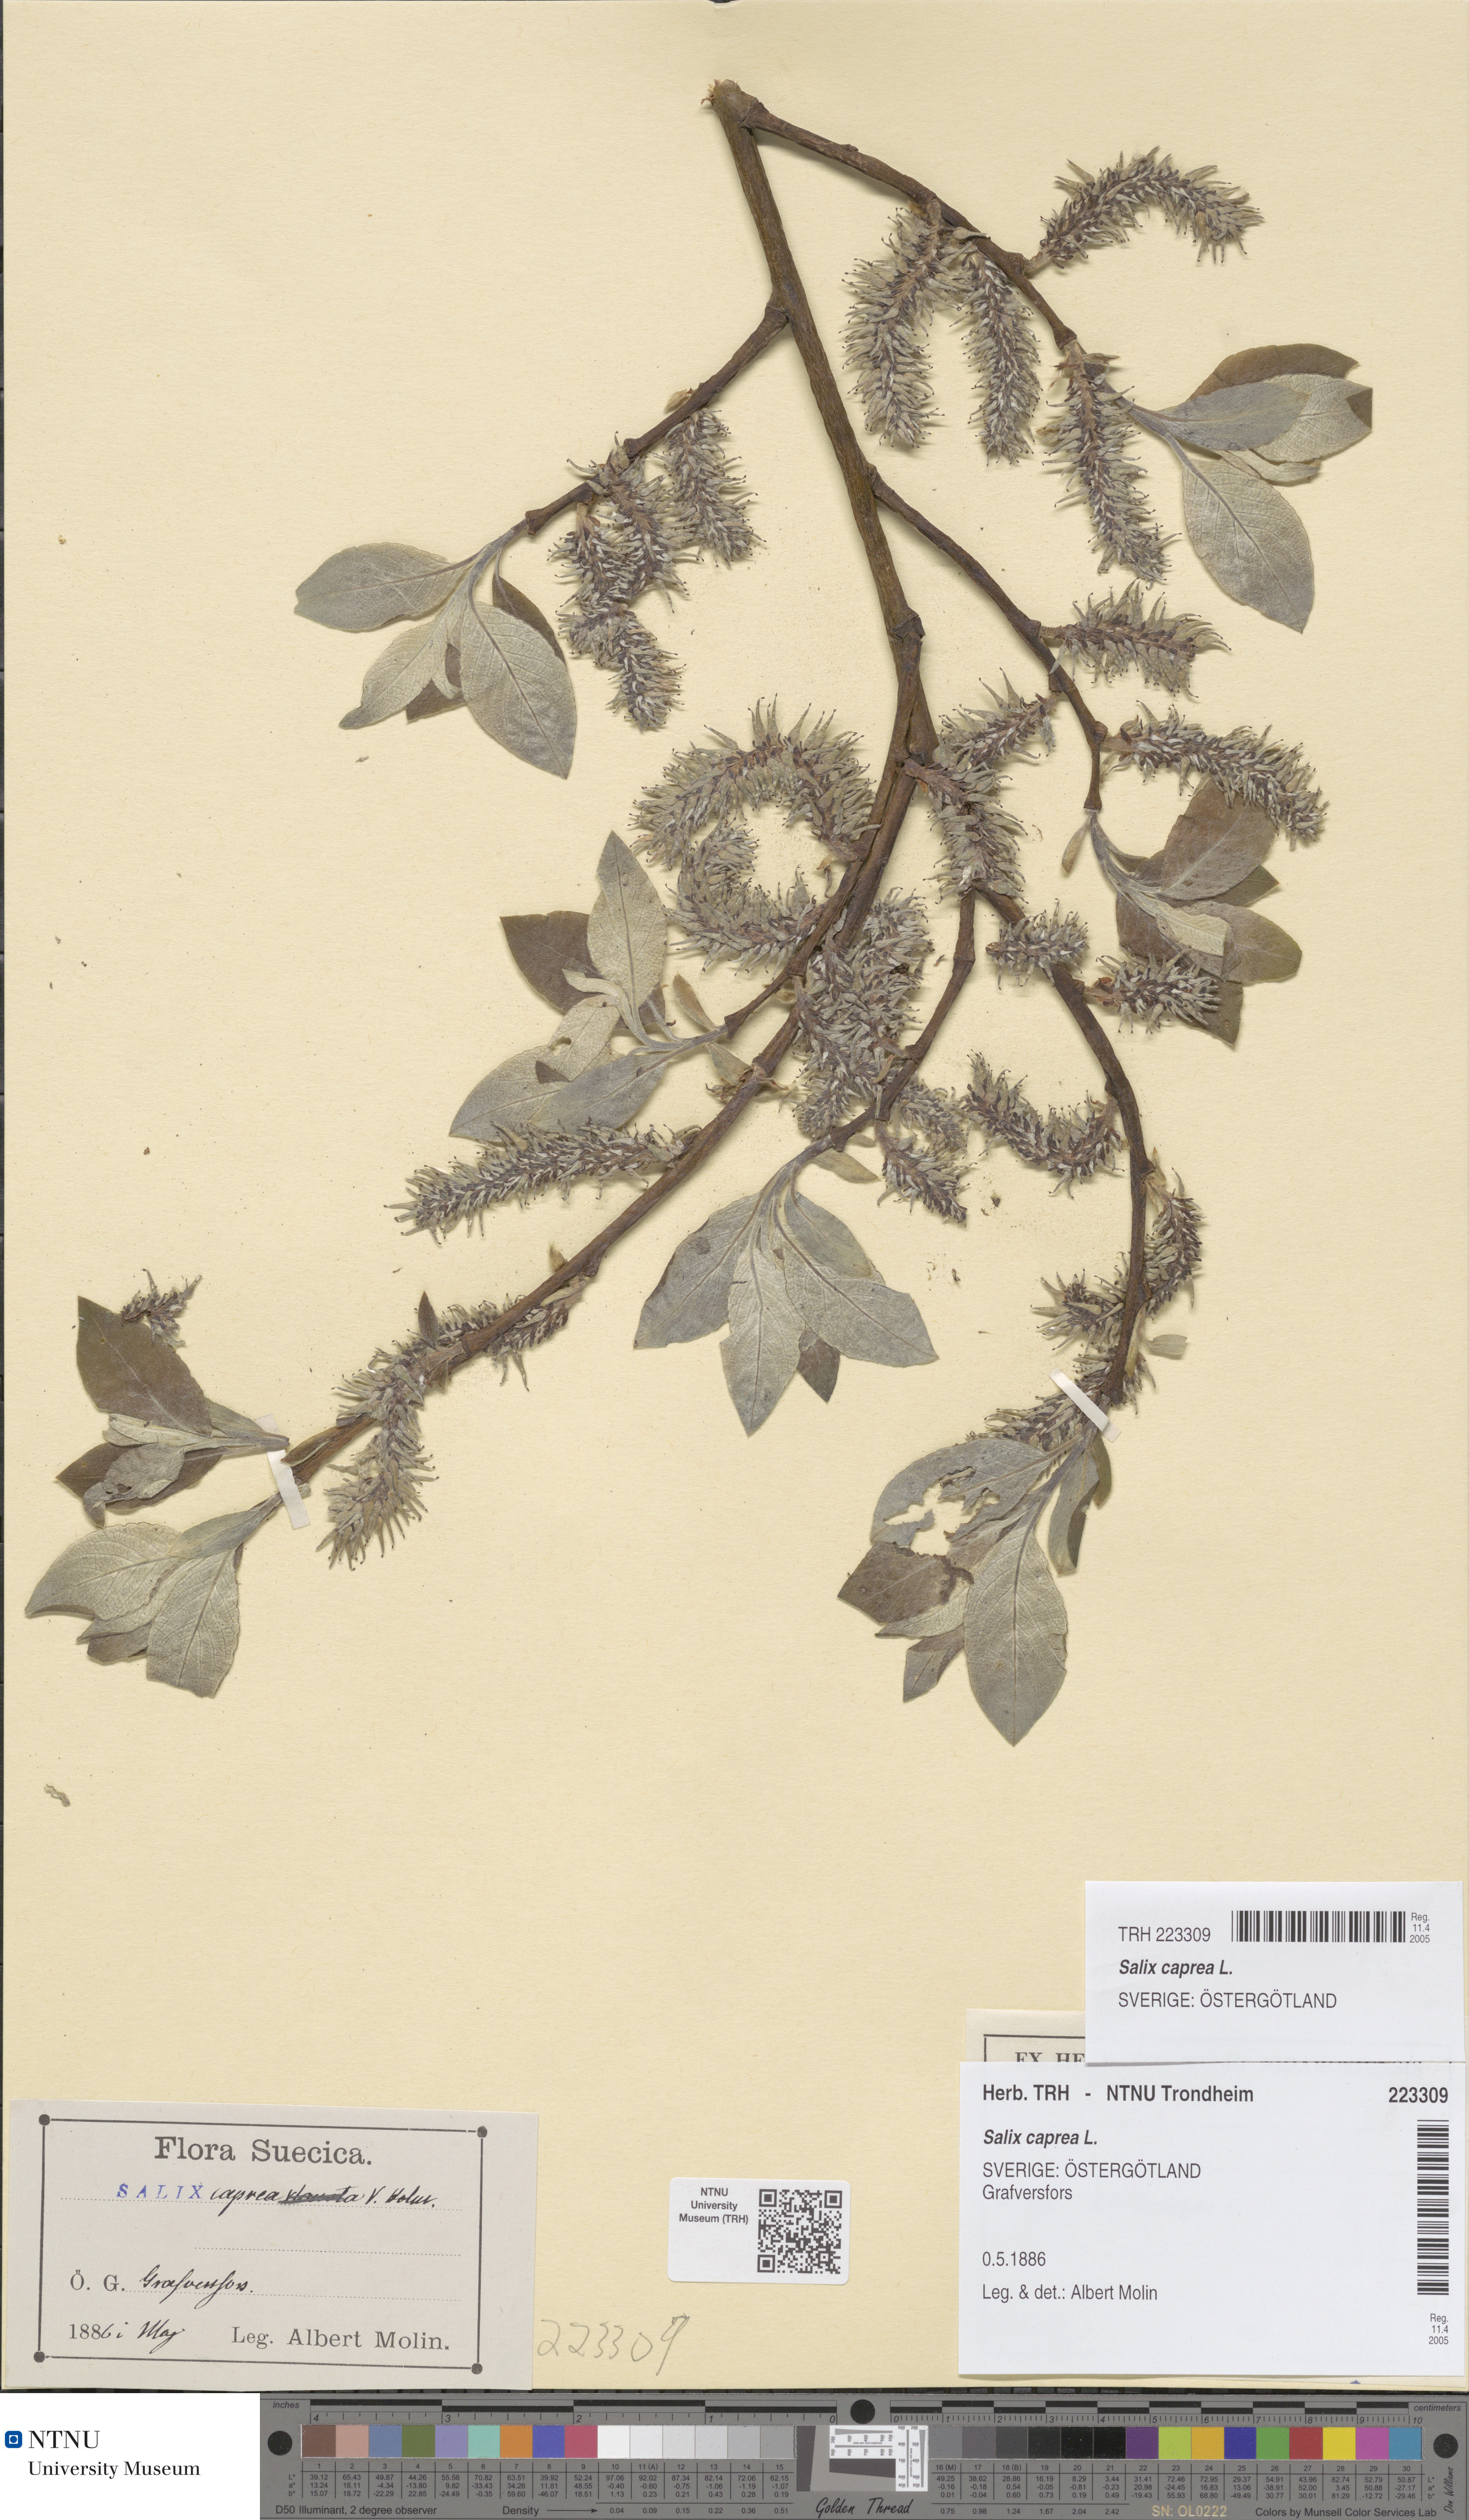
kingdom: Plantae
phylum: Tracheophyta
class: Magnoliopsida
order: Malpighiales
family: Salicaceae
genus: Salix
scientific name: Salix caprea
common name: Goat willow
